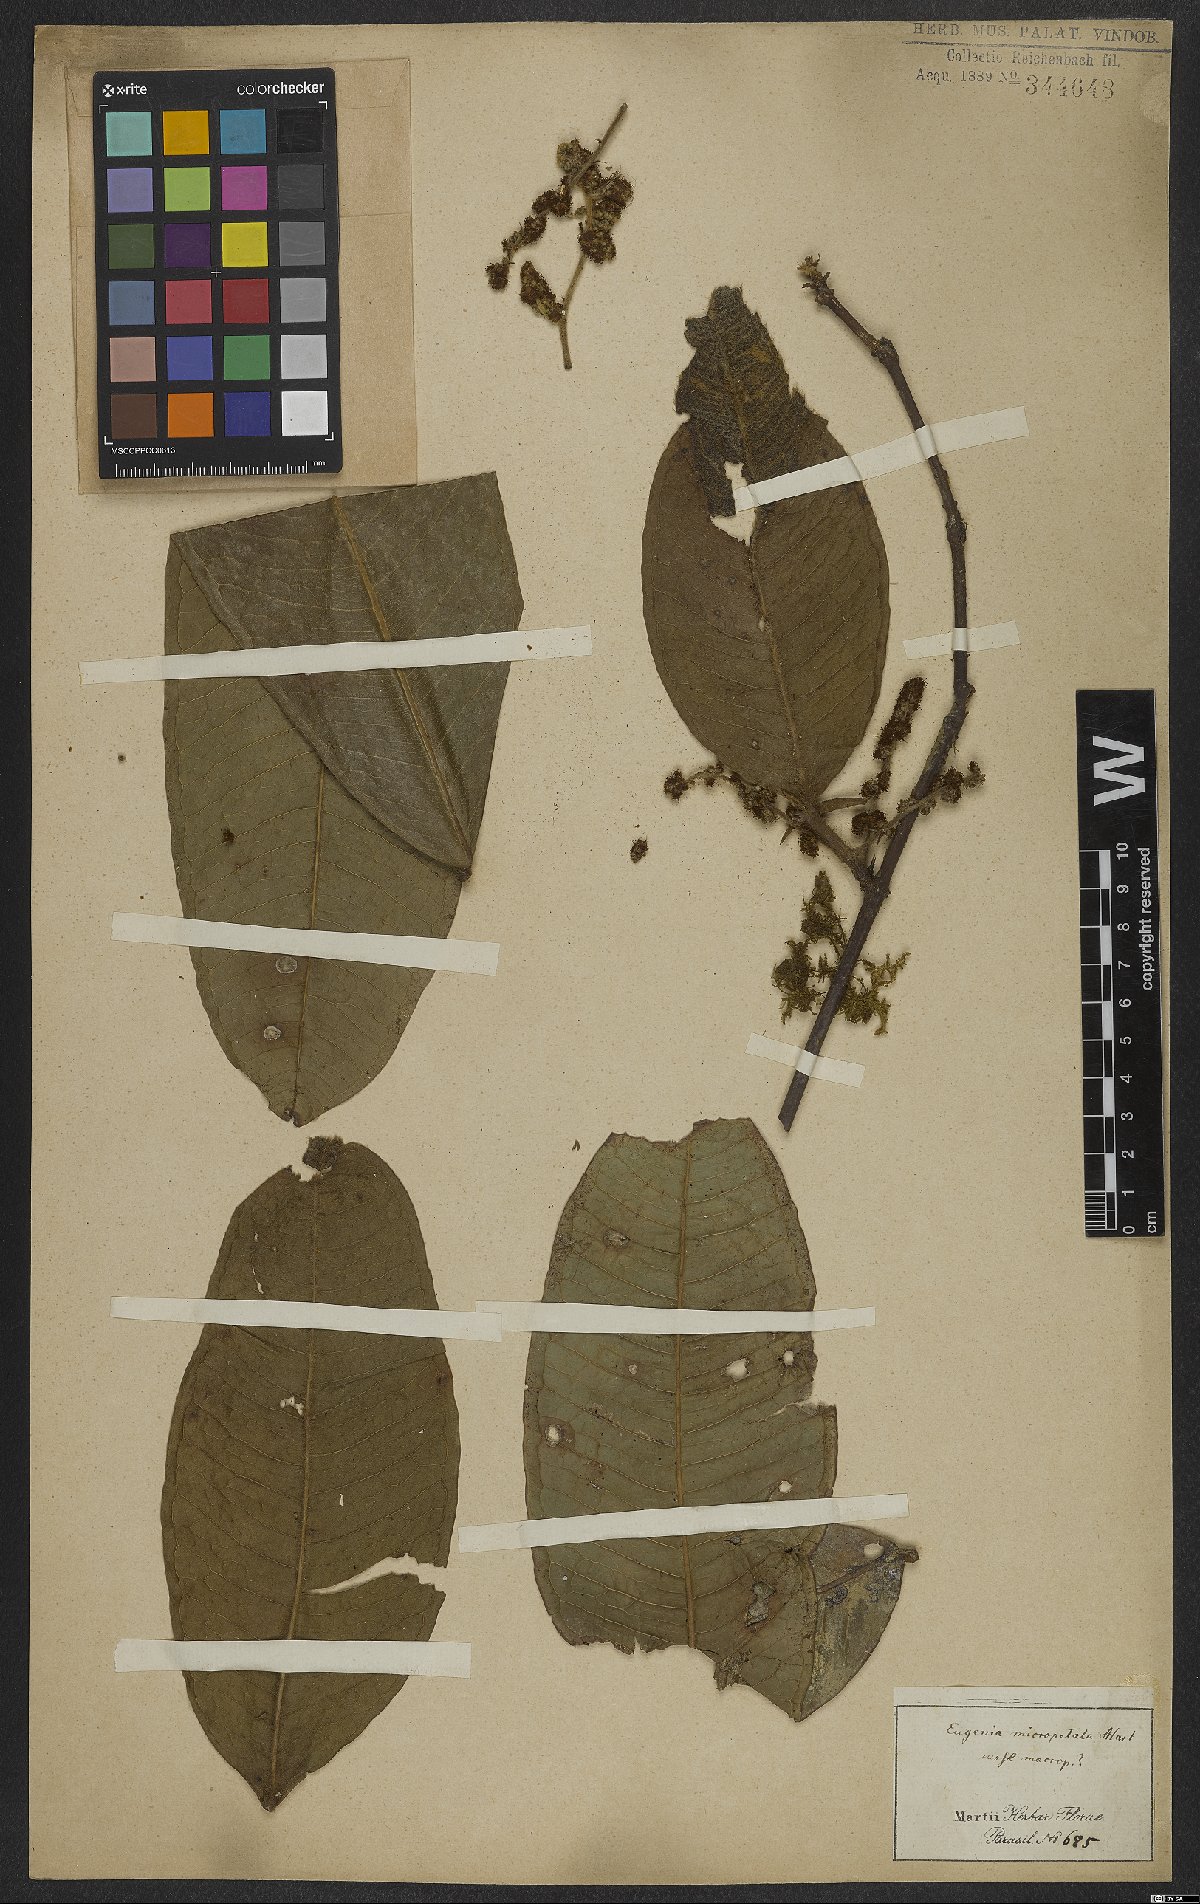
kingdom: Plantae
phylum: Tracheophyta
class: Magnoliopsida
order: Myrtales
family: Myrtaceae
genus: Myrcia
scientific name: Myrcia micropetala
